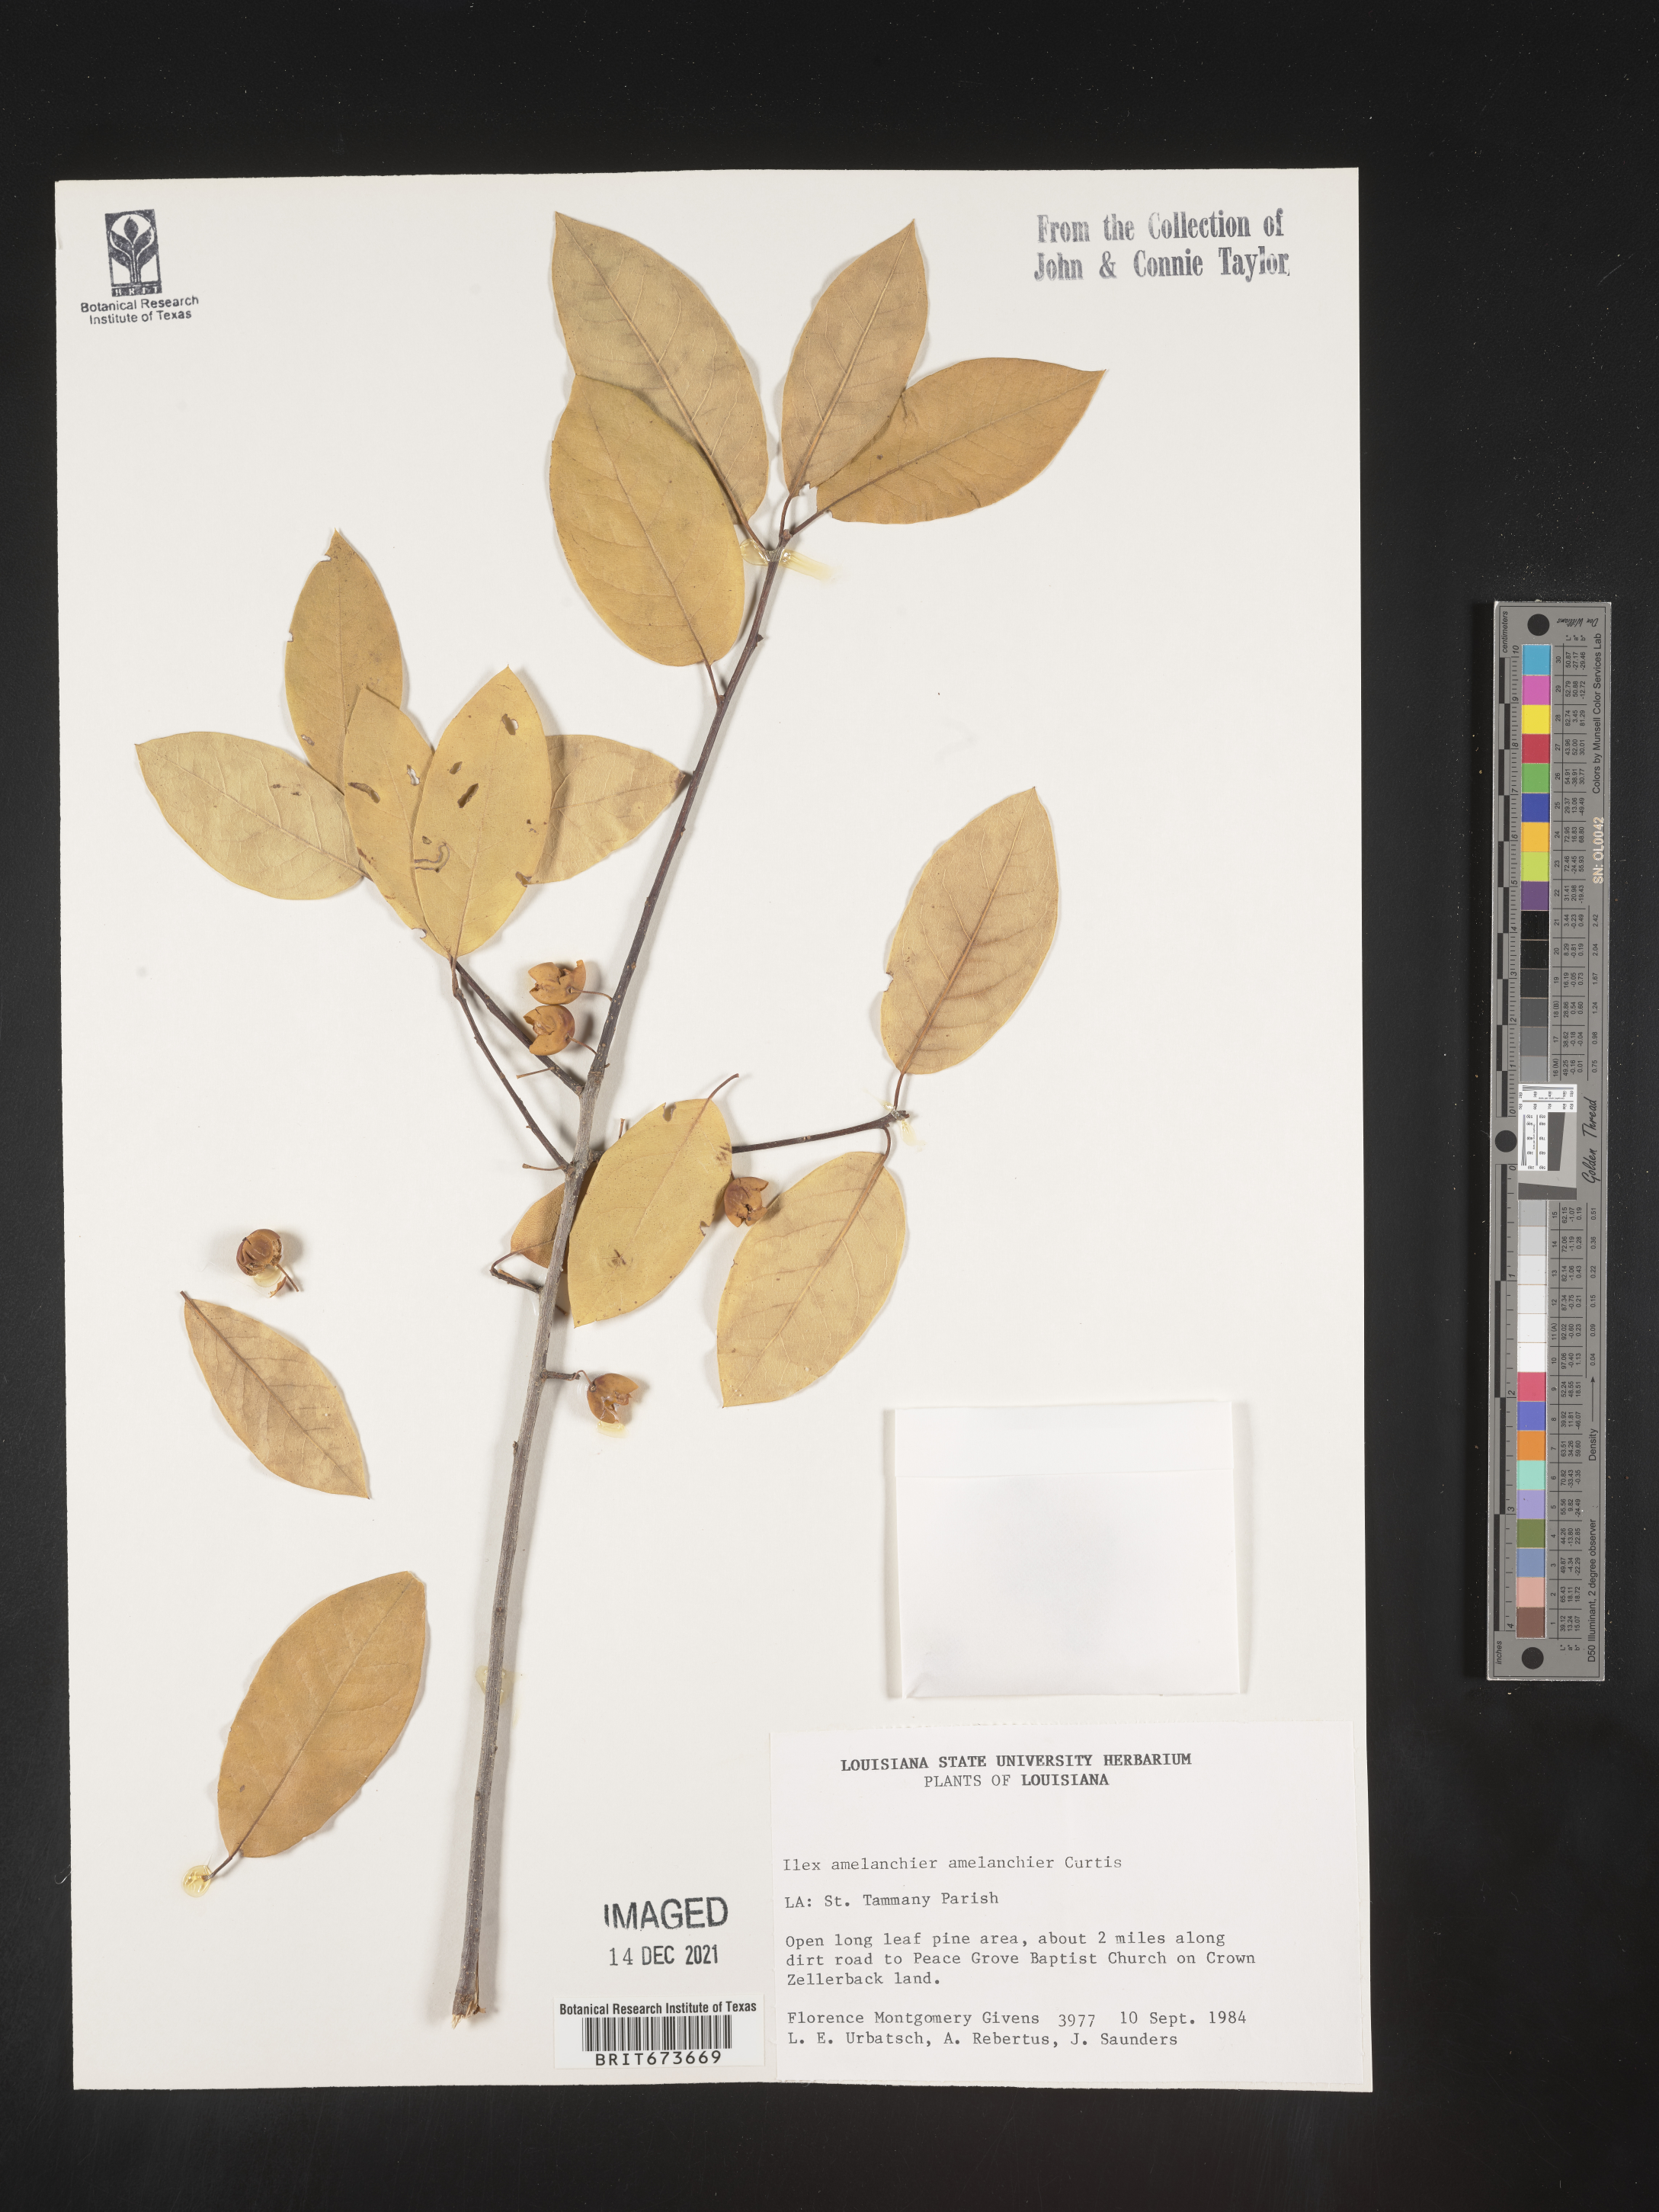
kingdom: Plantae
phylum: Tracheophyta
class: Magnoliopsida
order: Aquifoliales
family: Aquifoliaceae
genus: Ilex
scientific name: Ilex
